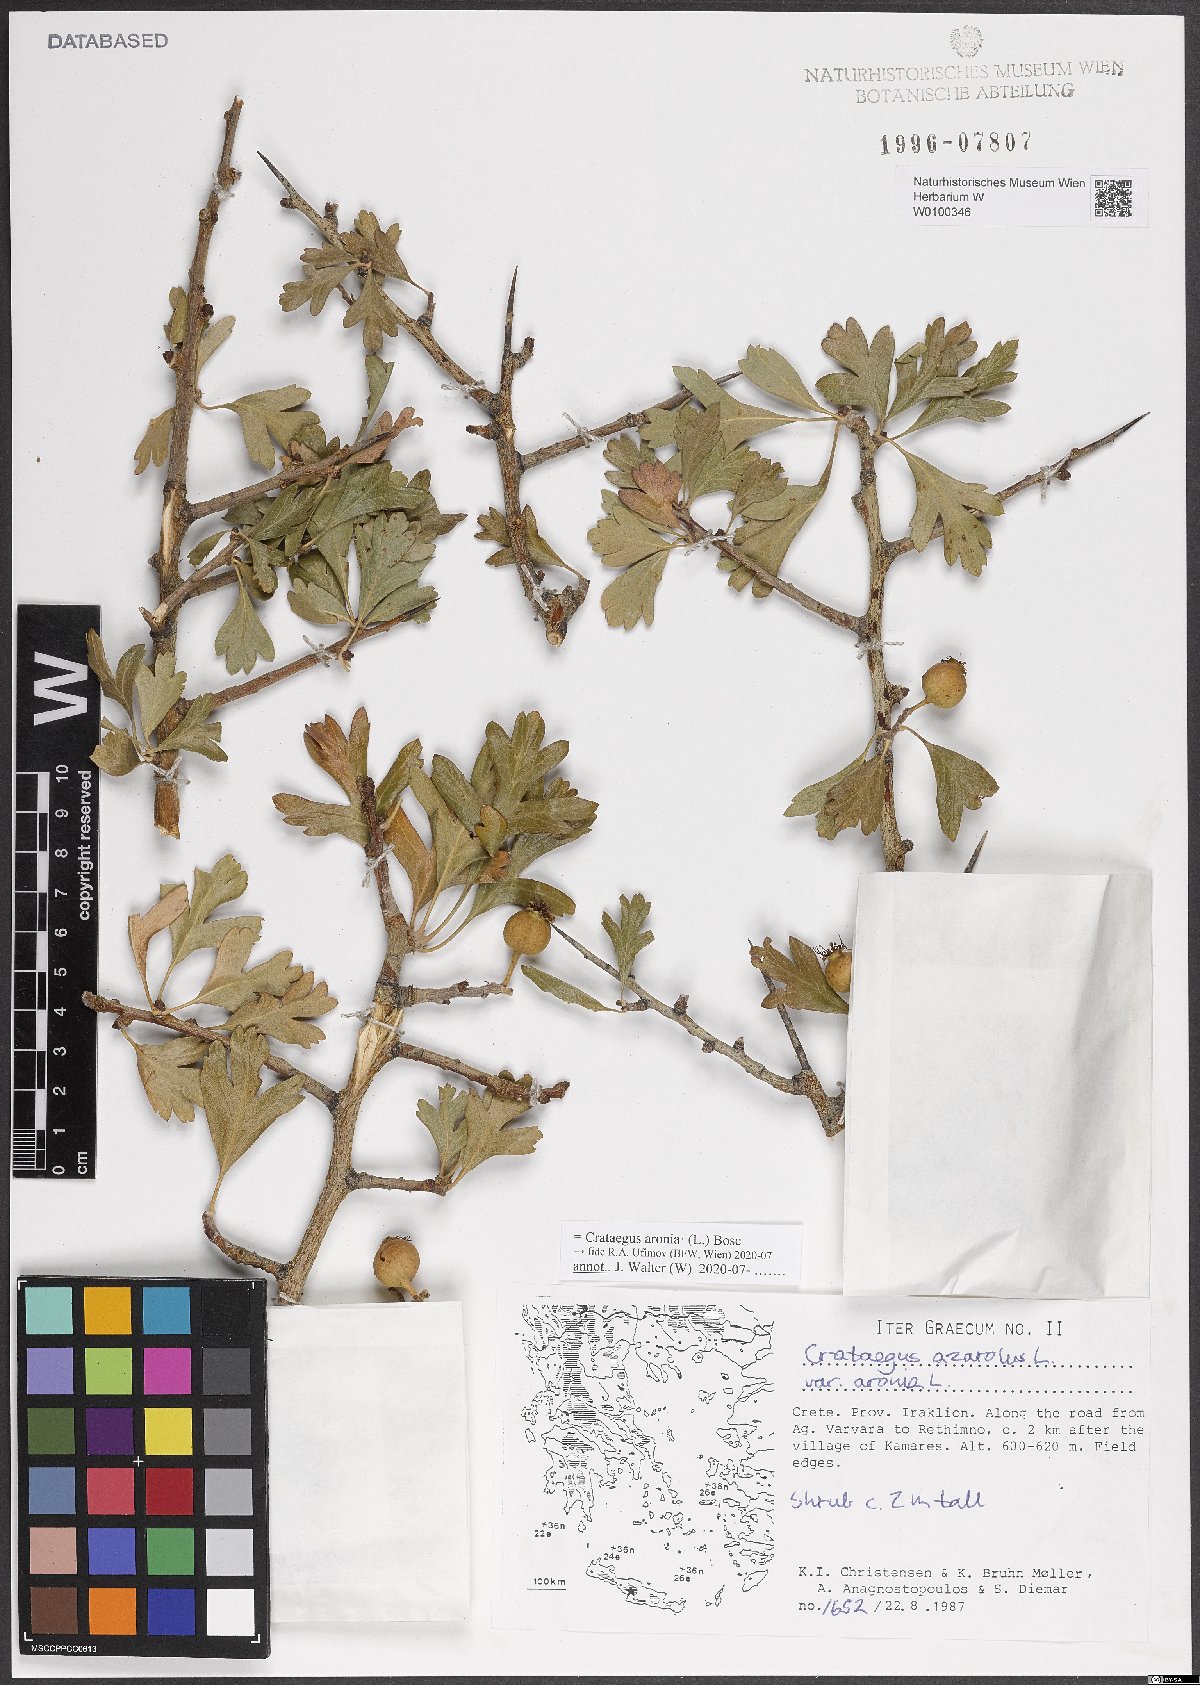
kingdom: Plantae
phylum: Tracheophyta
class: Magnoliopsida
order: Rosales
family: Rosaceae
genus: Crataegus
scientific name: Crataegus azarolus
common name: Azarole
